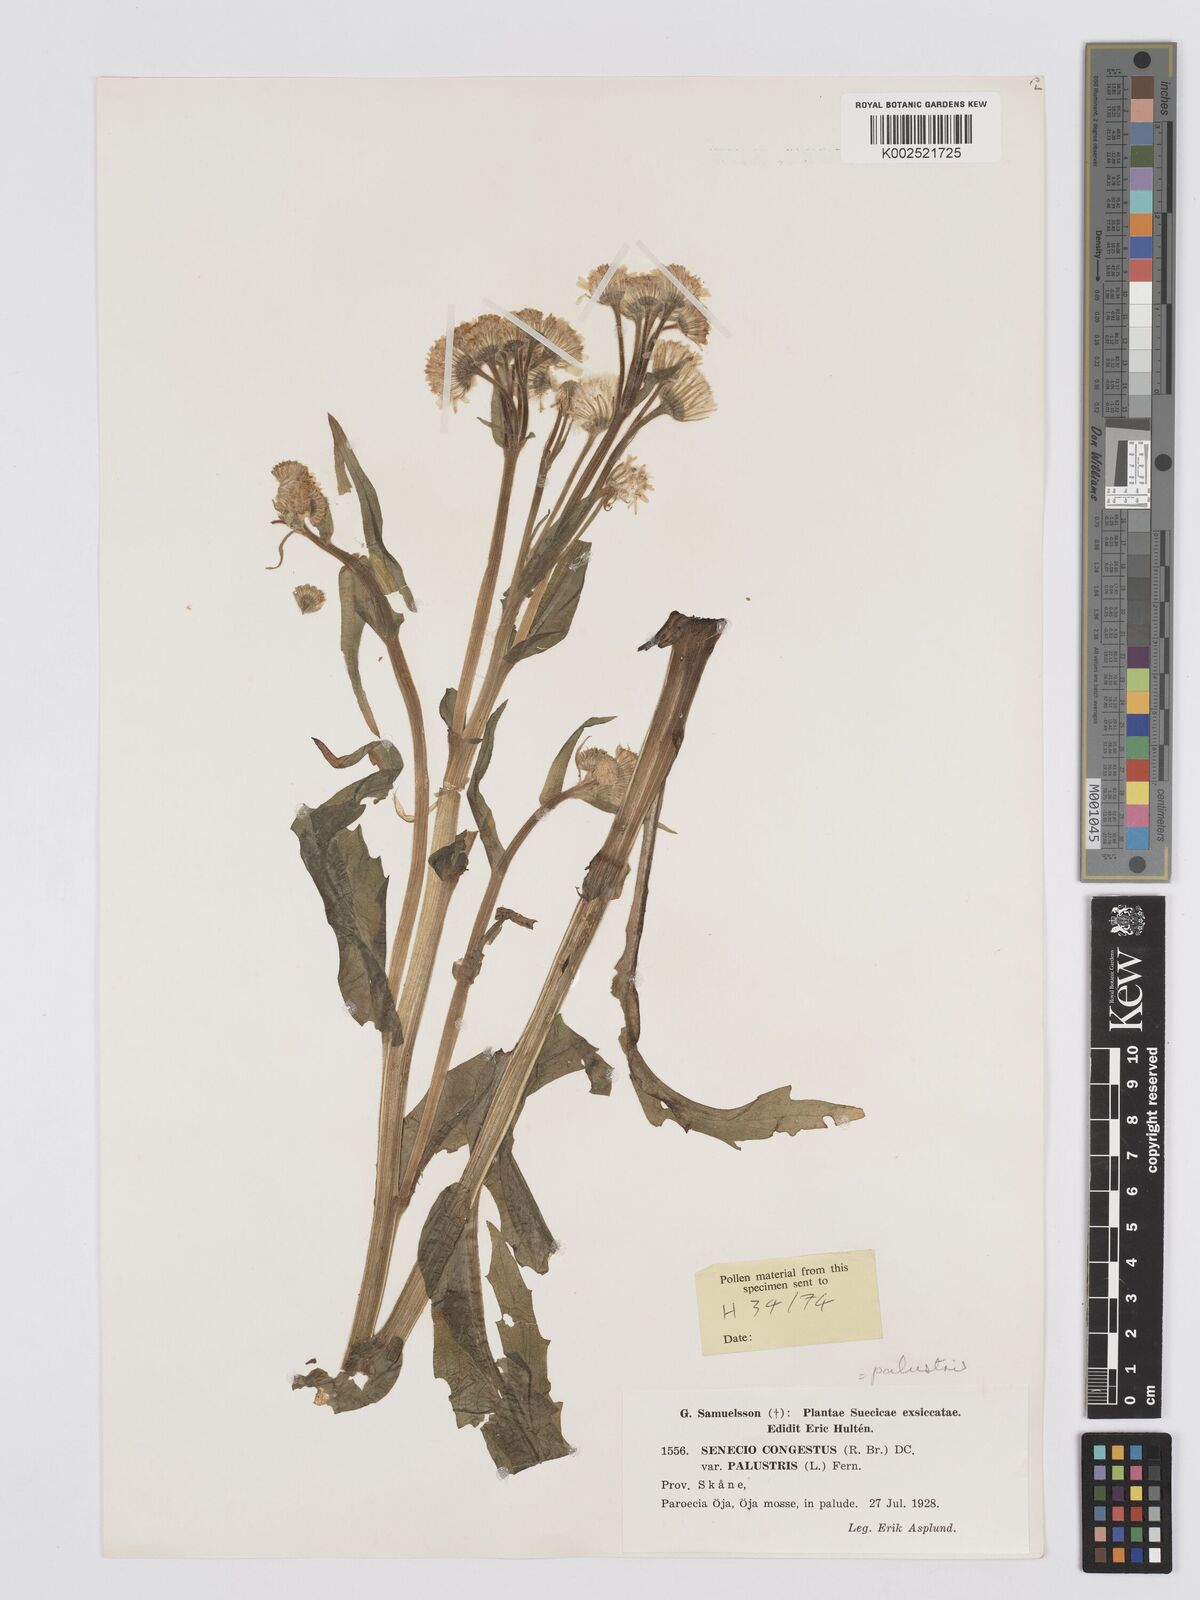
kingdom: Plantae
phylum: Tracheophyta
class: Magnoliopsida
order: Asterales
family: Asteraceae
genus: Tephroseris
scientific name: Tephroseris palustris
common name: Marsh fleawort
